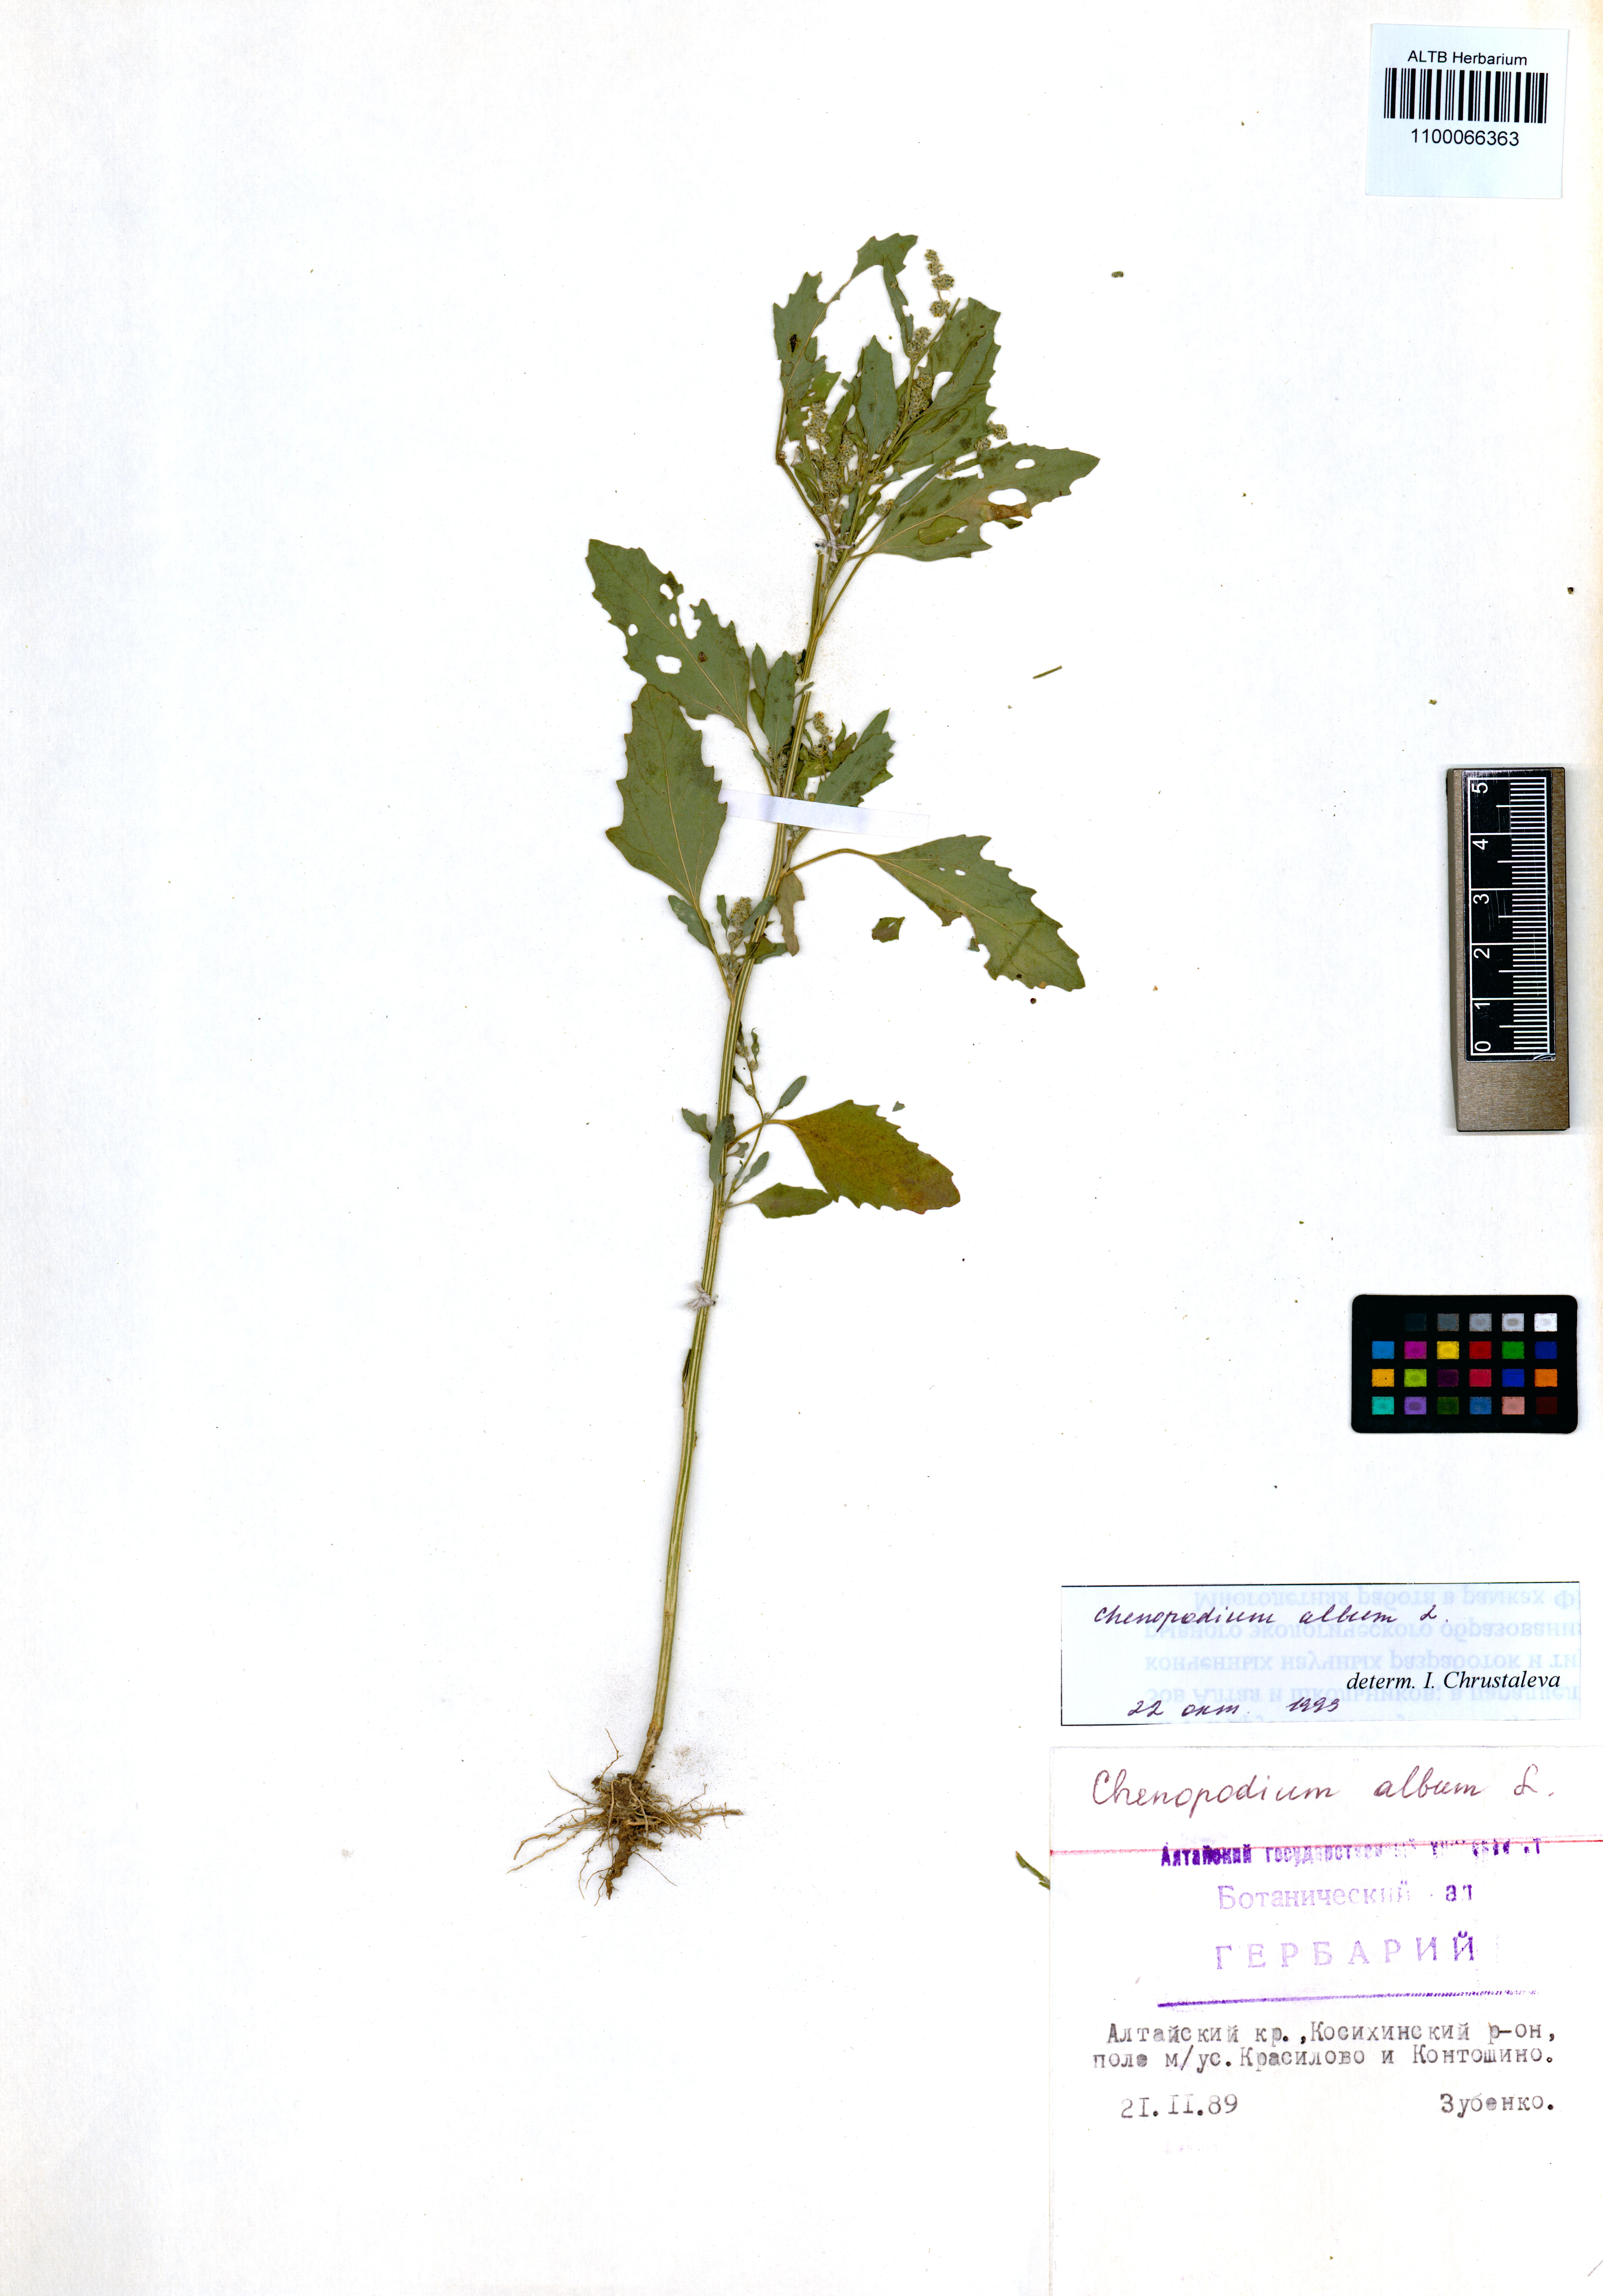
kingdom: Plantae
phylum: Tracheophyta
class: Magnoliopsida
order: Caryophyllales
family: Amaranthaceae
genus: Chenopodium
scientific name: Chenopodium album
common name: Fat-hen
